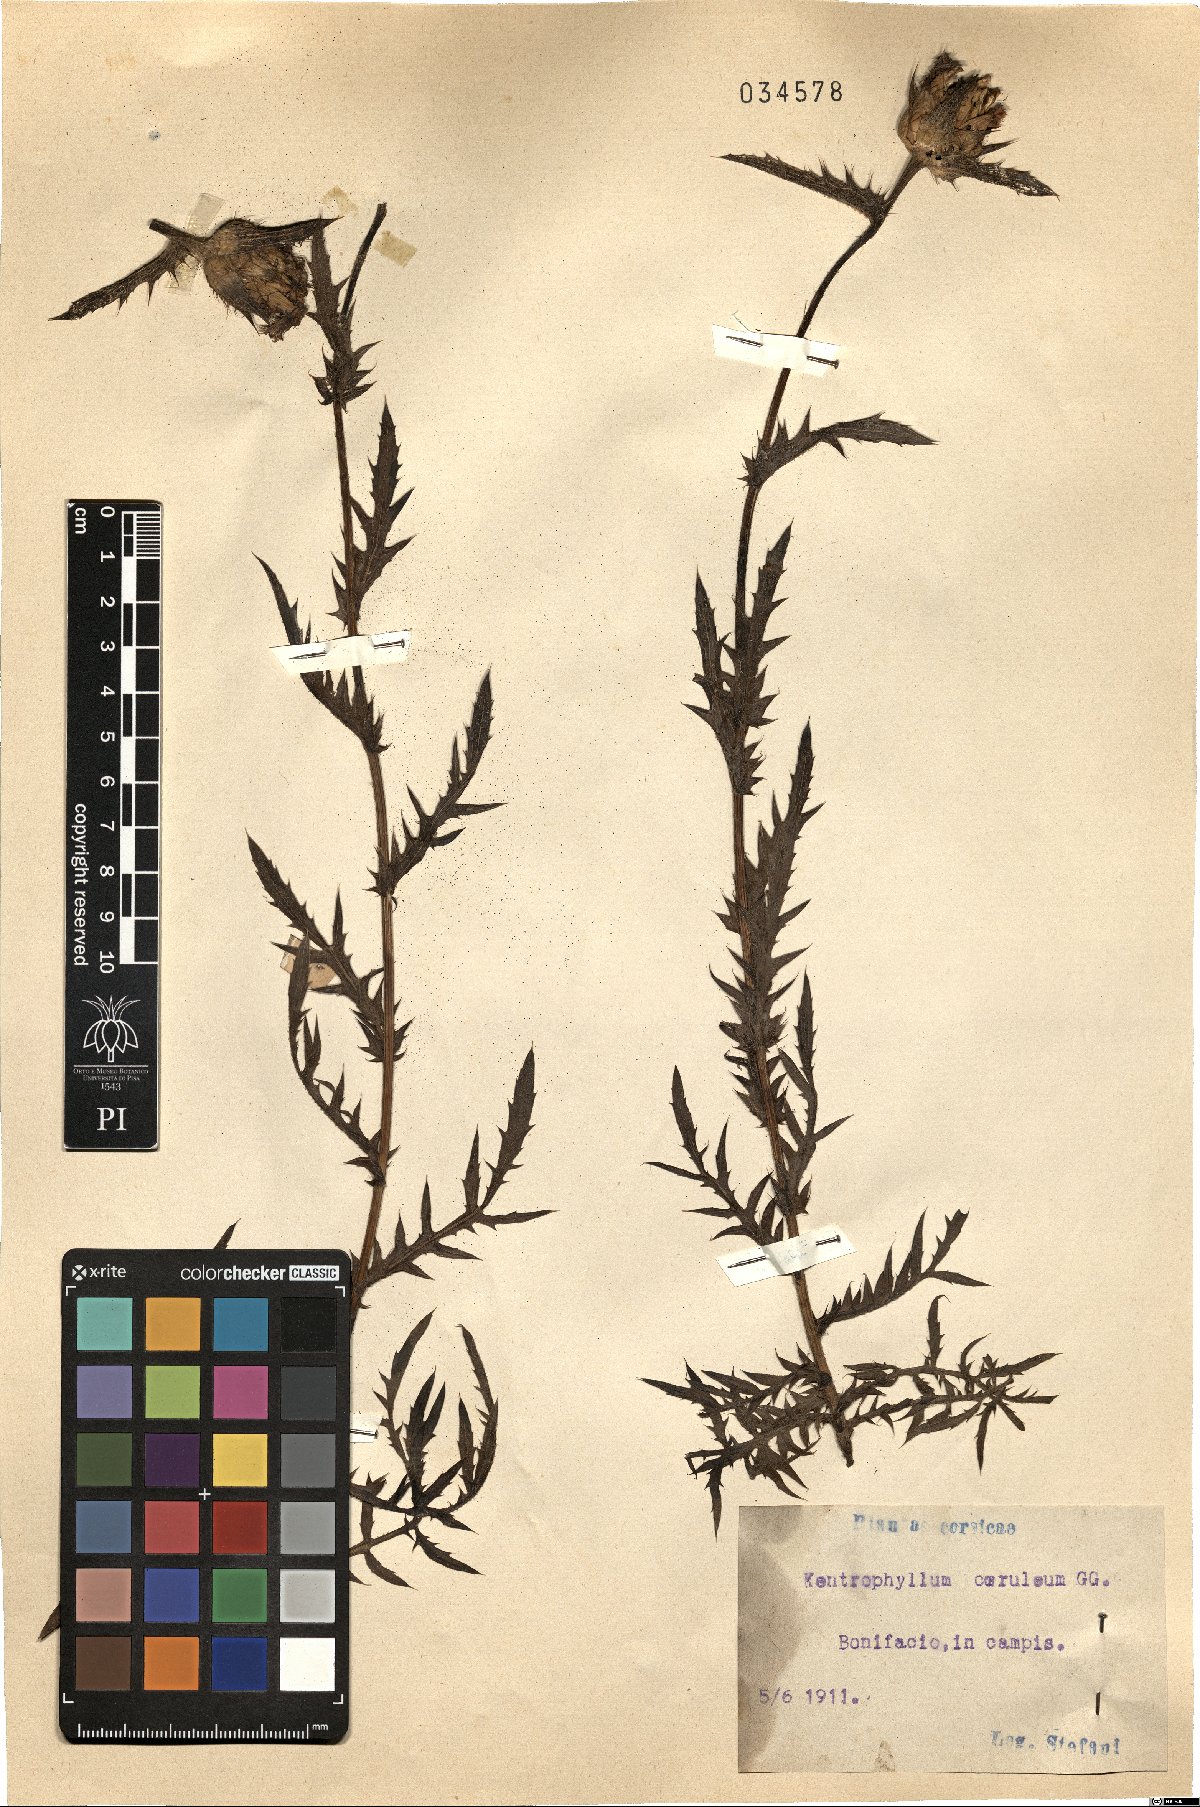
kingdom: Plantae
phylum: Tracheophyta
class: Magnoliopsida
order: Asterales
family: Asteraceae
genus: Kentrophyllum
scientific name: Kentrophyllum
